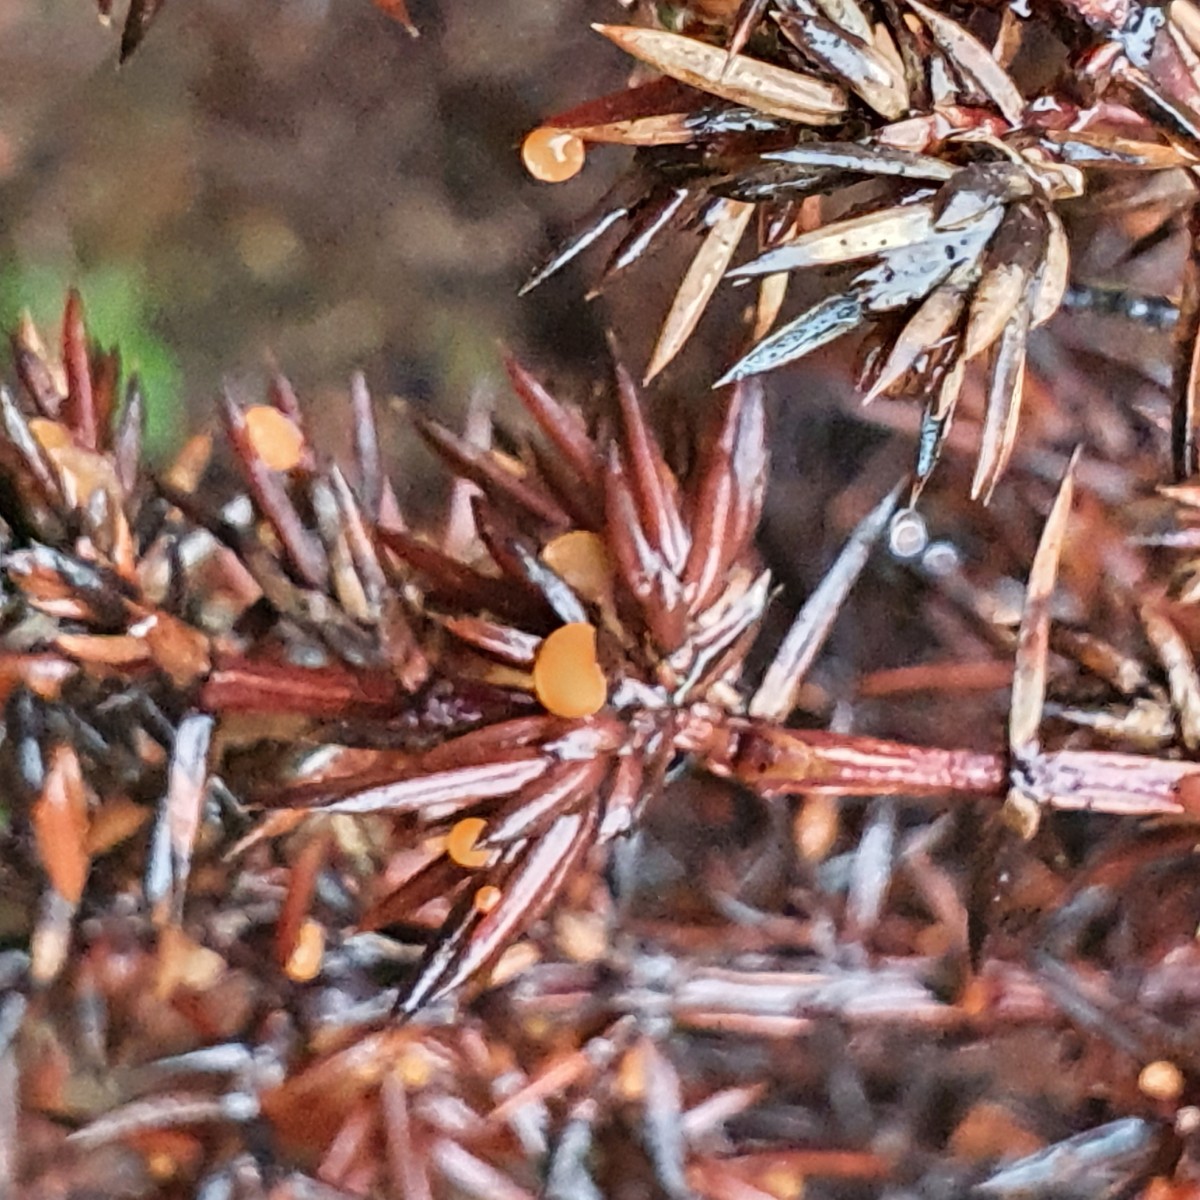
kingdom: Fungi
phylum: Ascomycota
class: Pezizomycetes
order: Pezizales
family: Sarcoscyphaceae
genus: Pithya
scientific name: Pithya cupressina
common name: lille dukatbæger
